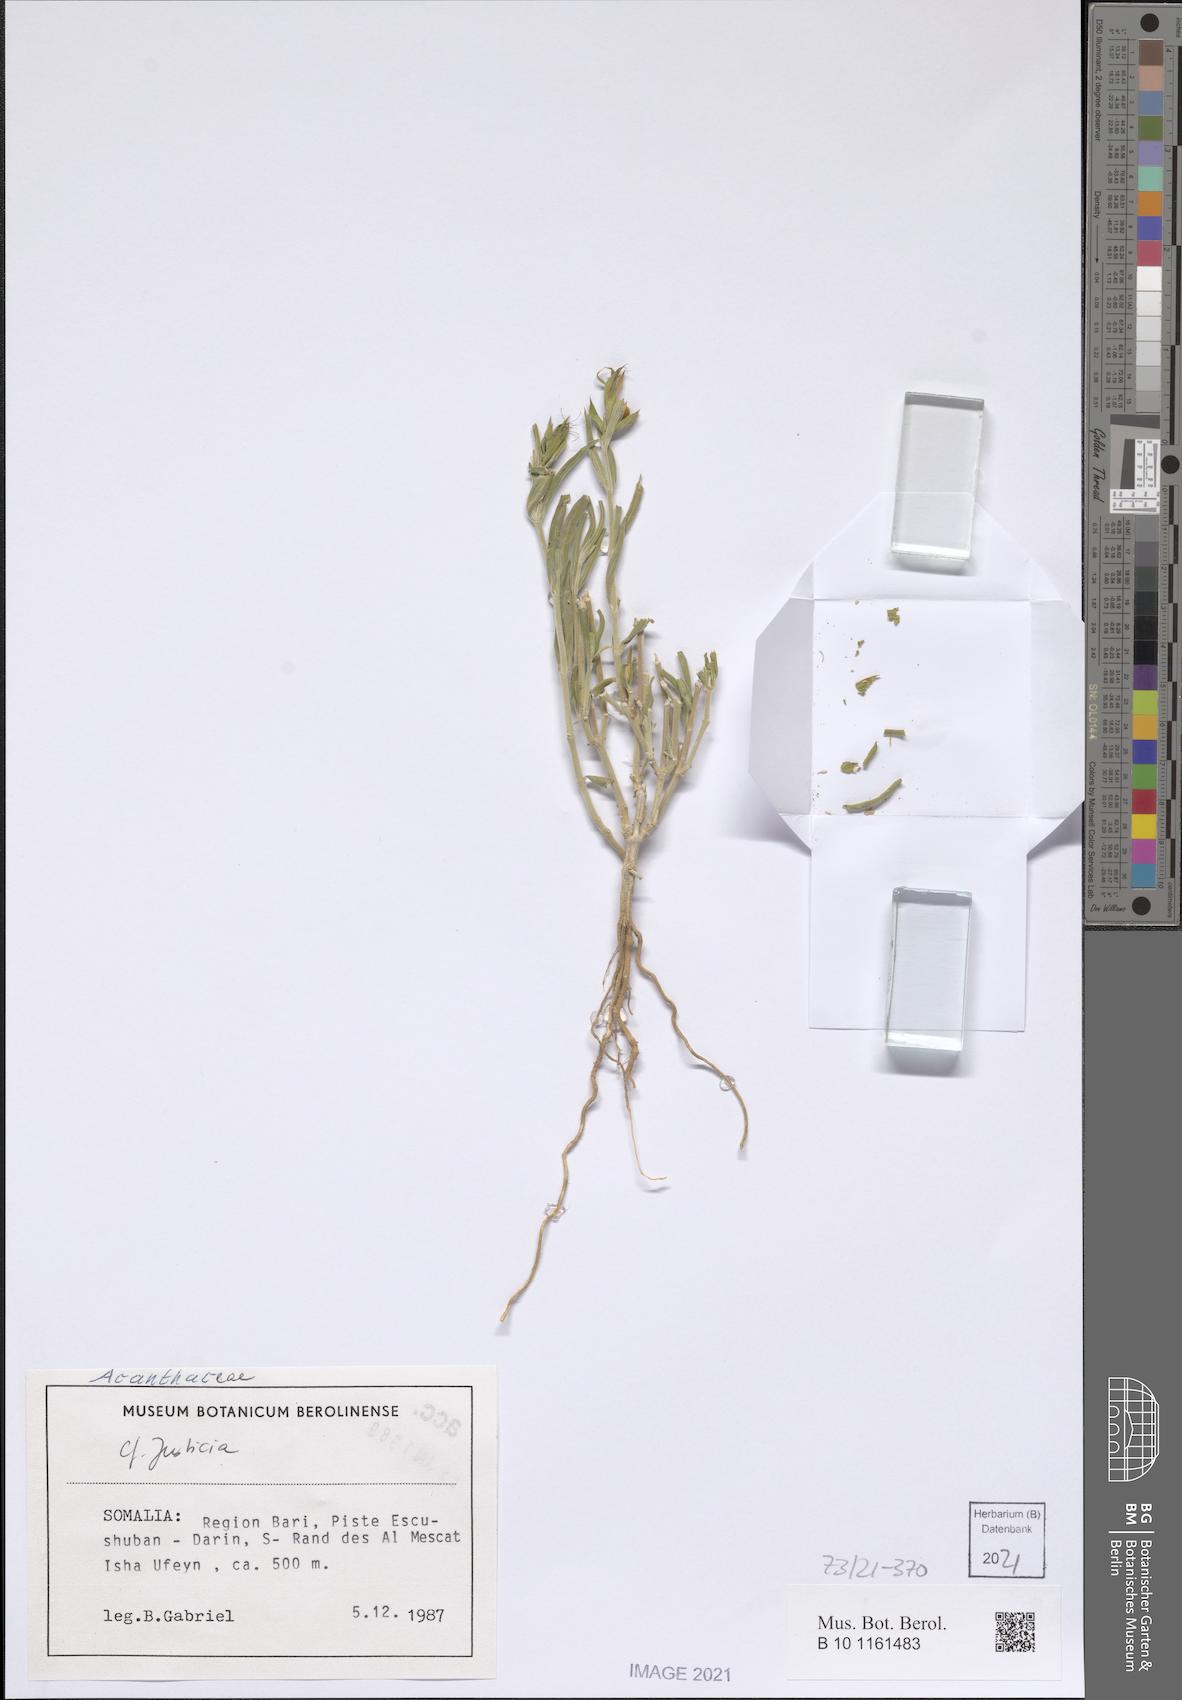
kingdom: Plantae
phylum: Tracheophyta
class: Magnoliopsida
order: Lamiales
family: Acanthaceae
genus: Megalochlamys
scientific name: Megalochlamys violacea
